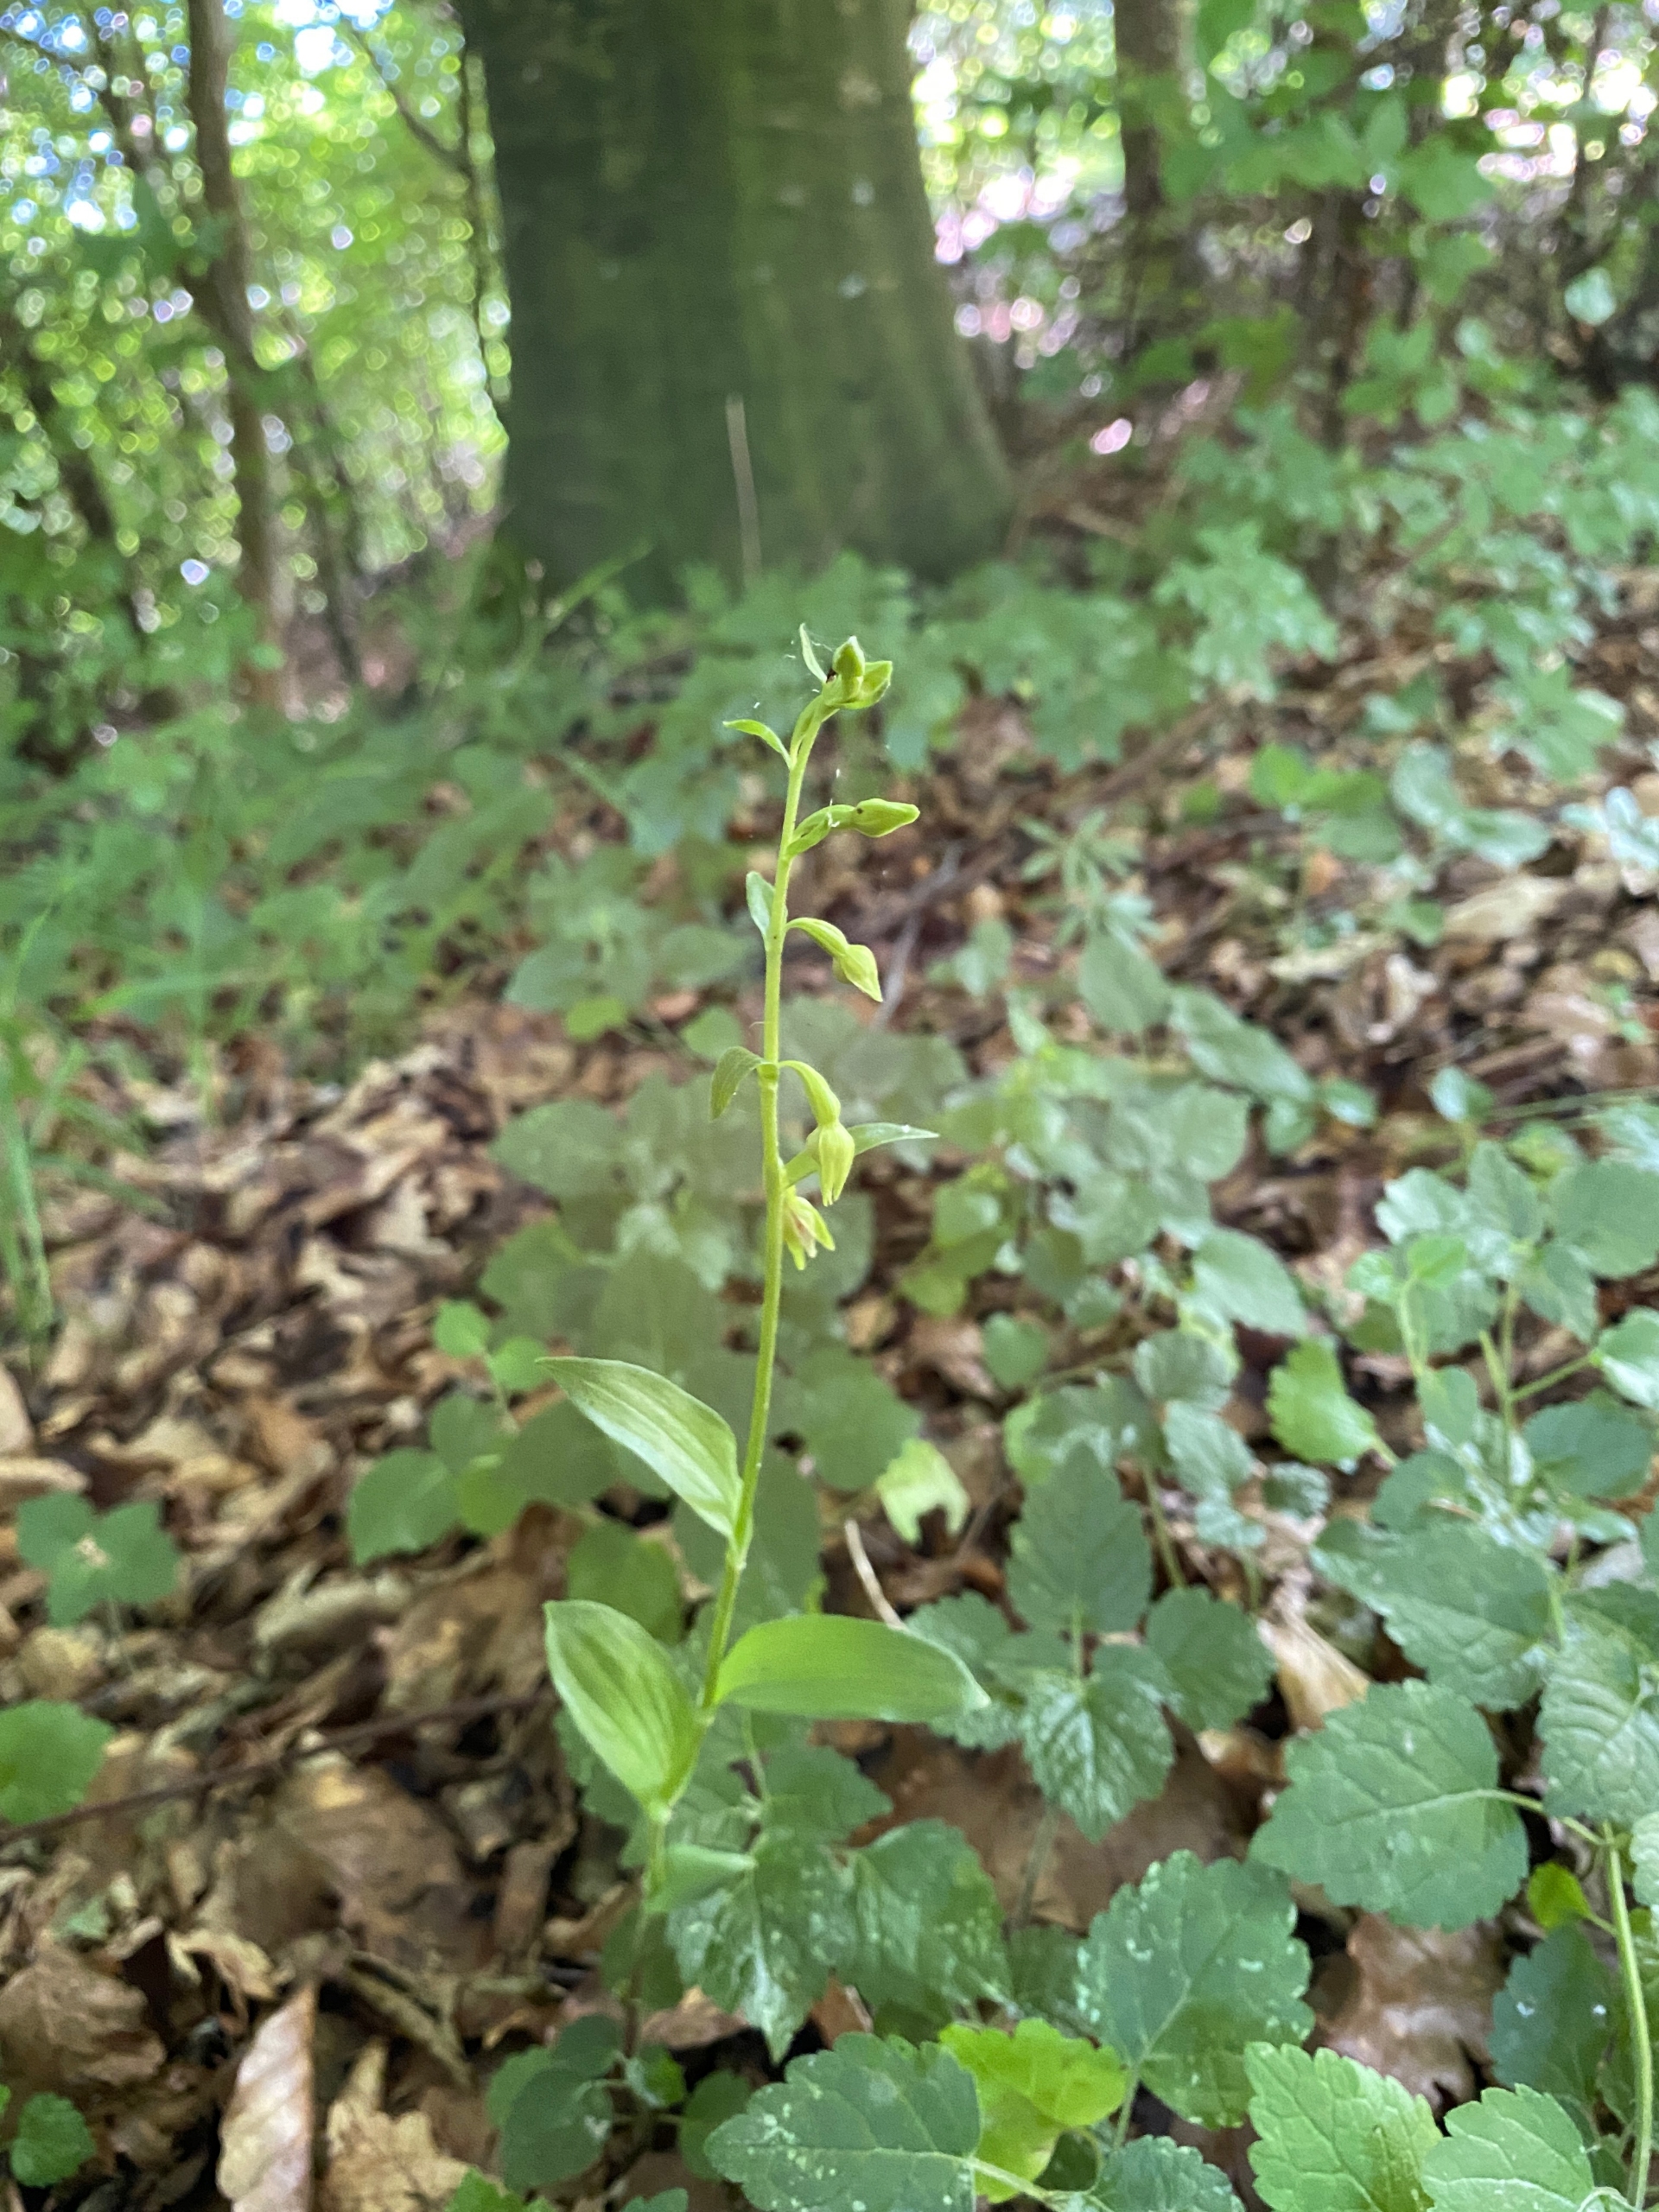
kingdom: Plantae
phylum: Tracheophyta
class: Liliopsida
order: Asparagales
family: Orchidaceae
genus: Epipactis
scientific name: Epipactis phyllanthes
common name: Nikkende hullæbe
